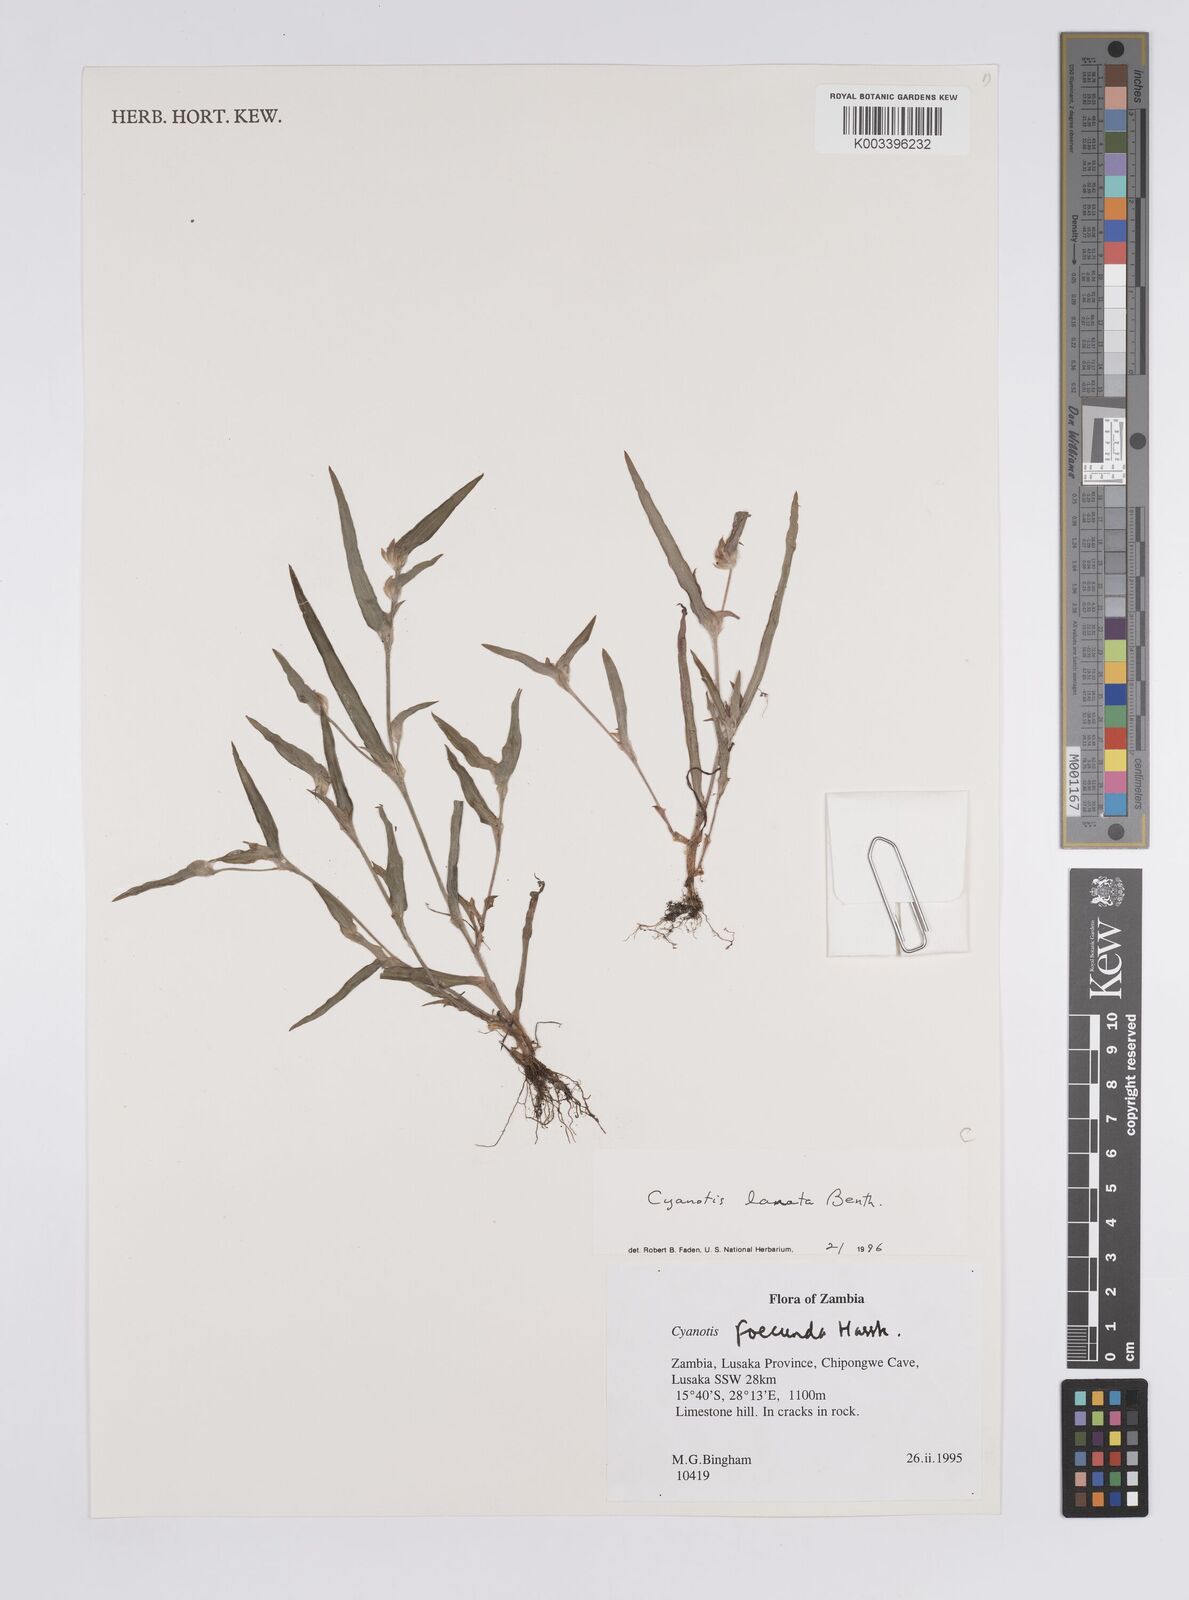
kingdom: Plantae
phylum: Tracheophyta
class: Liliopsida
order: Commelinales
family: Commelinaceae
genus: Cyanotis
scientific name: Cyanotis lanata
